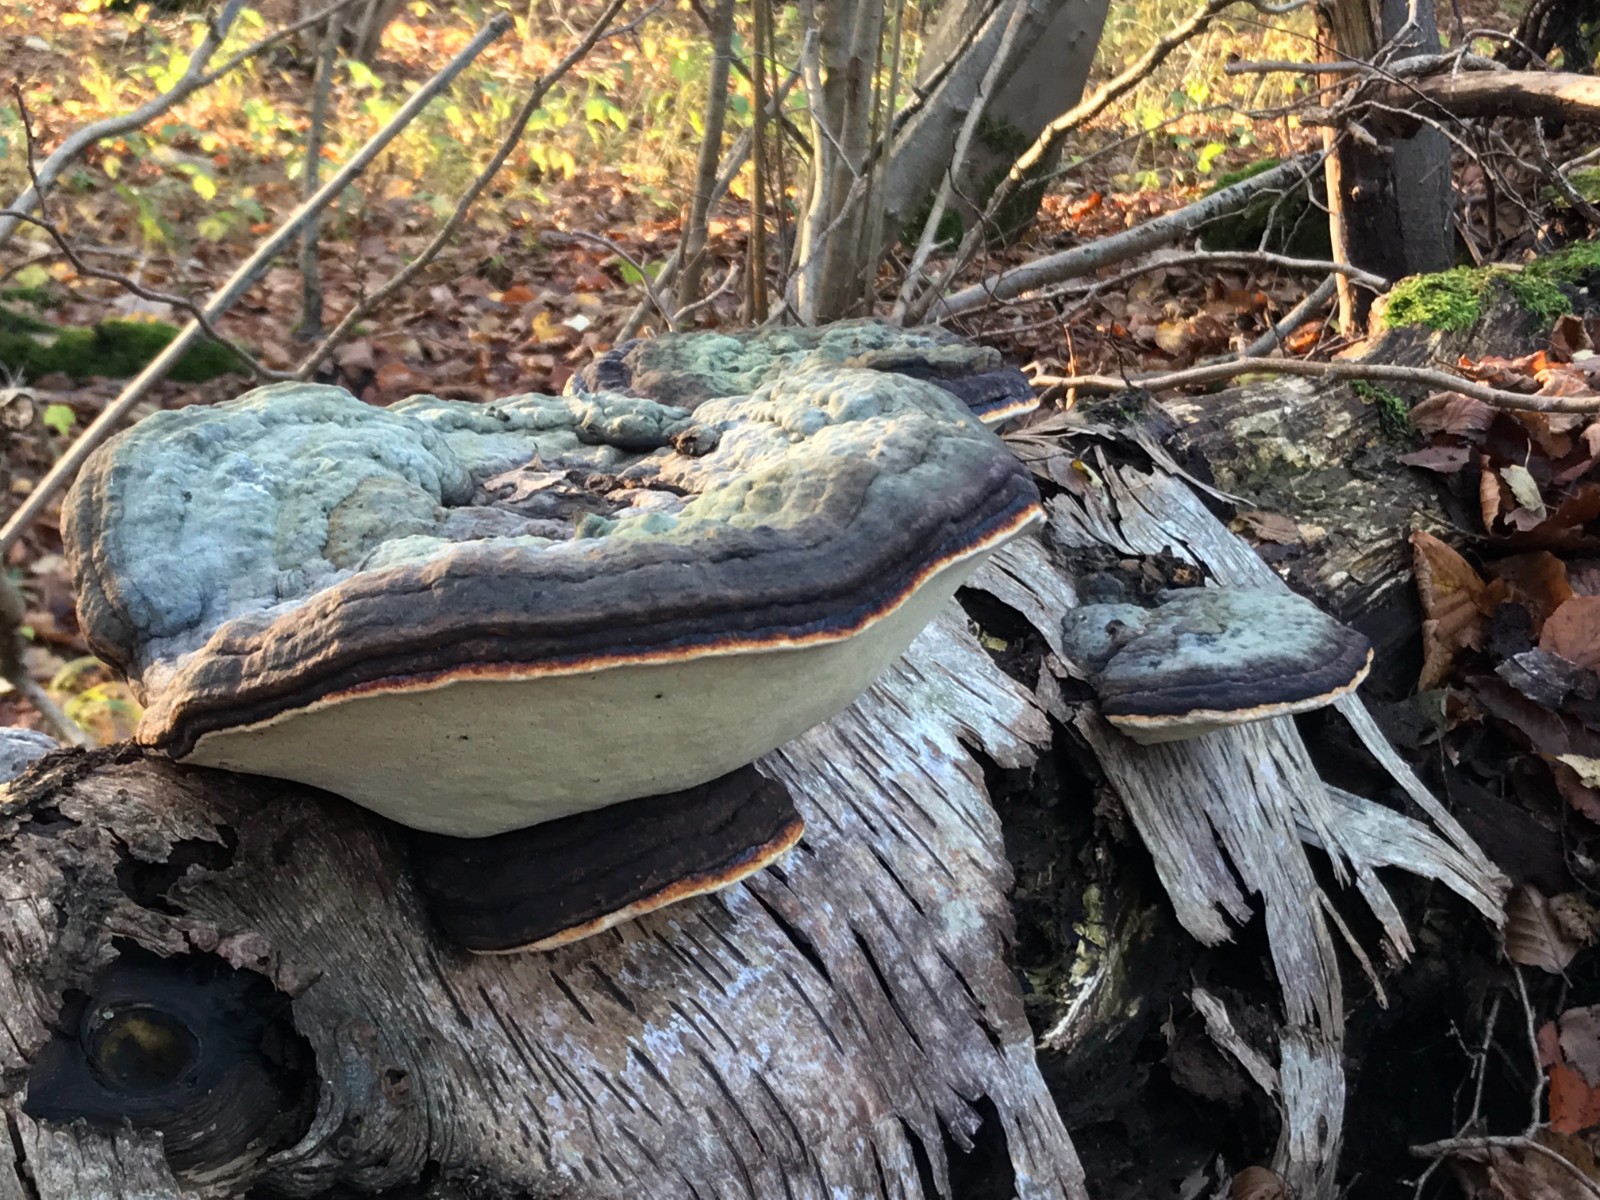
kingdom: Fungi
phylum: Basidiomycota
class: Agaricomycetes
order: Polyporales
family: Polyporaceae
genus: Fomes
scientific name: Fomes fomentarius
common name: tøndersvamp
